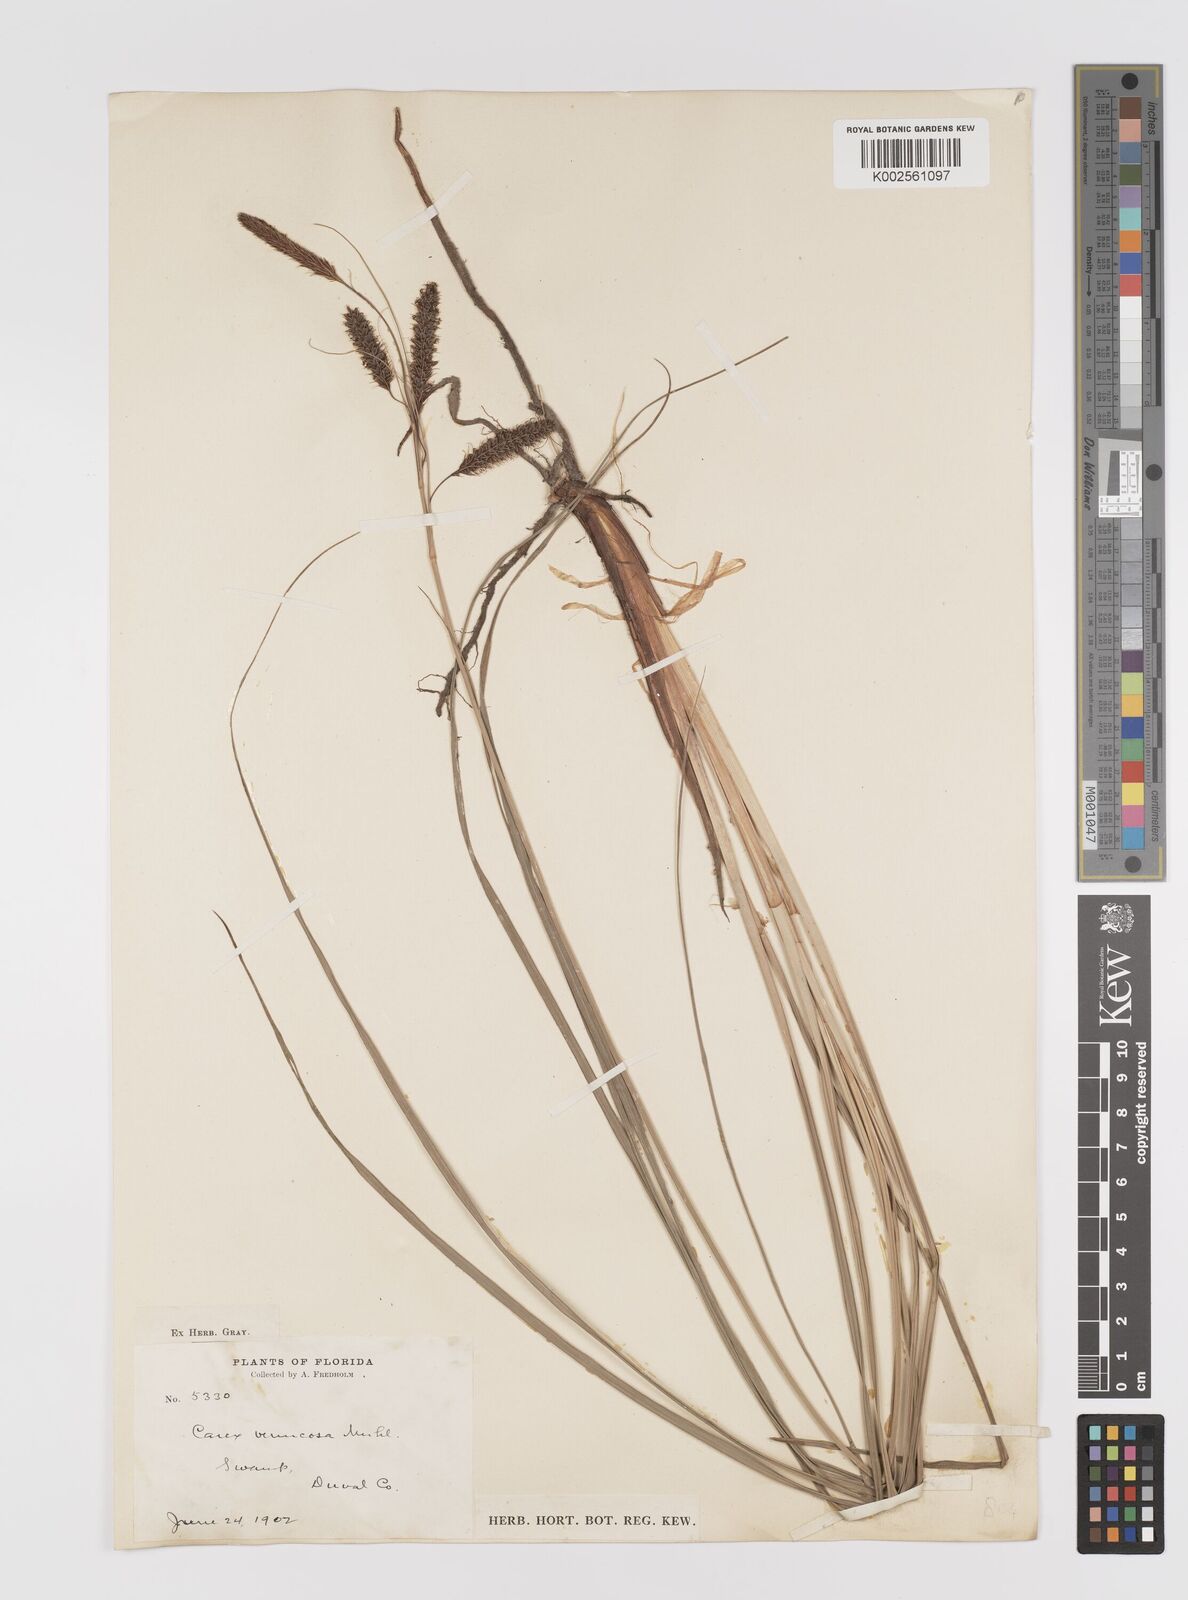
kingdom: Plantae
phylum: Tracheophyta
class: Liliopsida
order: Poales
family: Cyperaceae
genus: Carex
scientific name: Carex verrucosa
